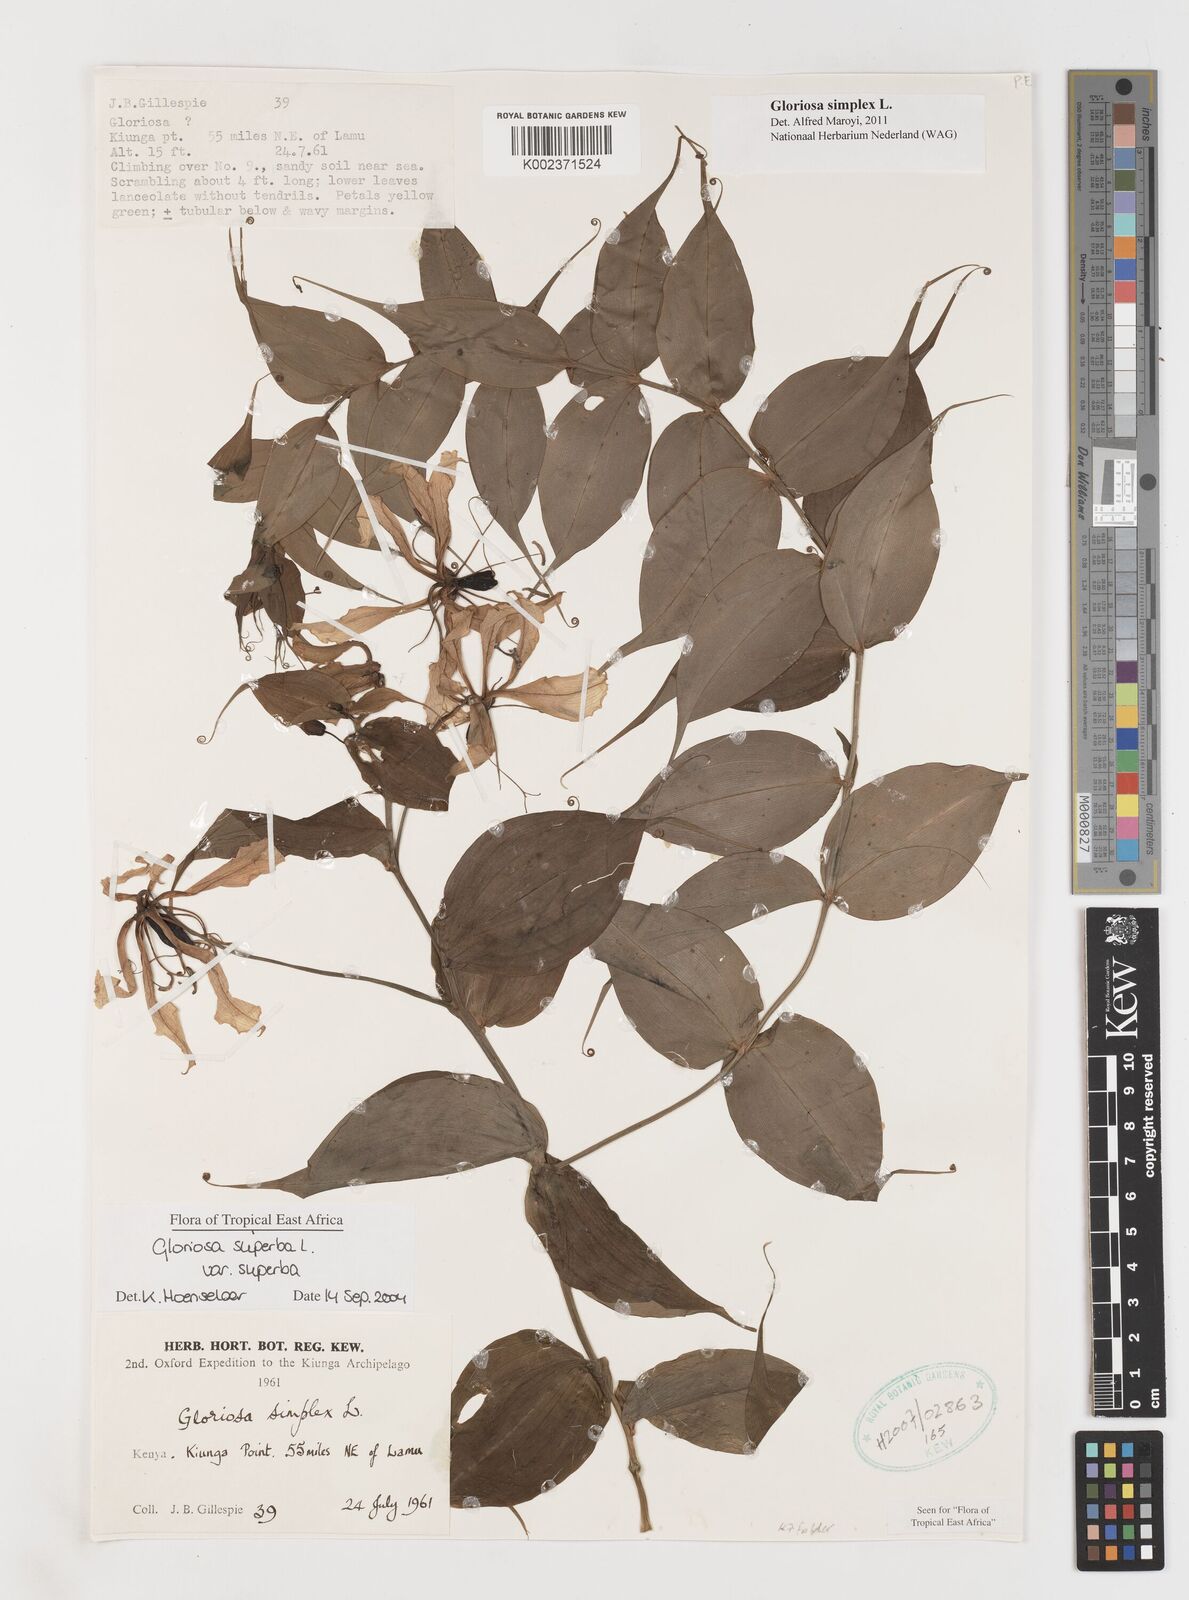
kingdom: Plantae
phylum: Tracheophyta
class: Liliopsida
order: Liliales
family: Colchicaceae
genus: Gloriosa
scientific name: Gloriosa simplex
